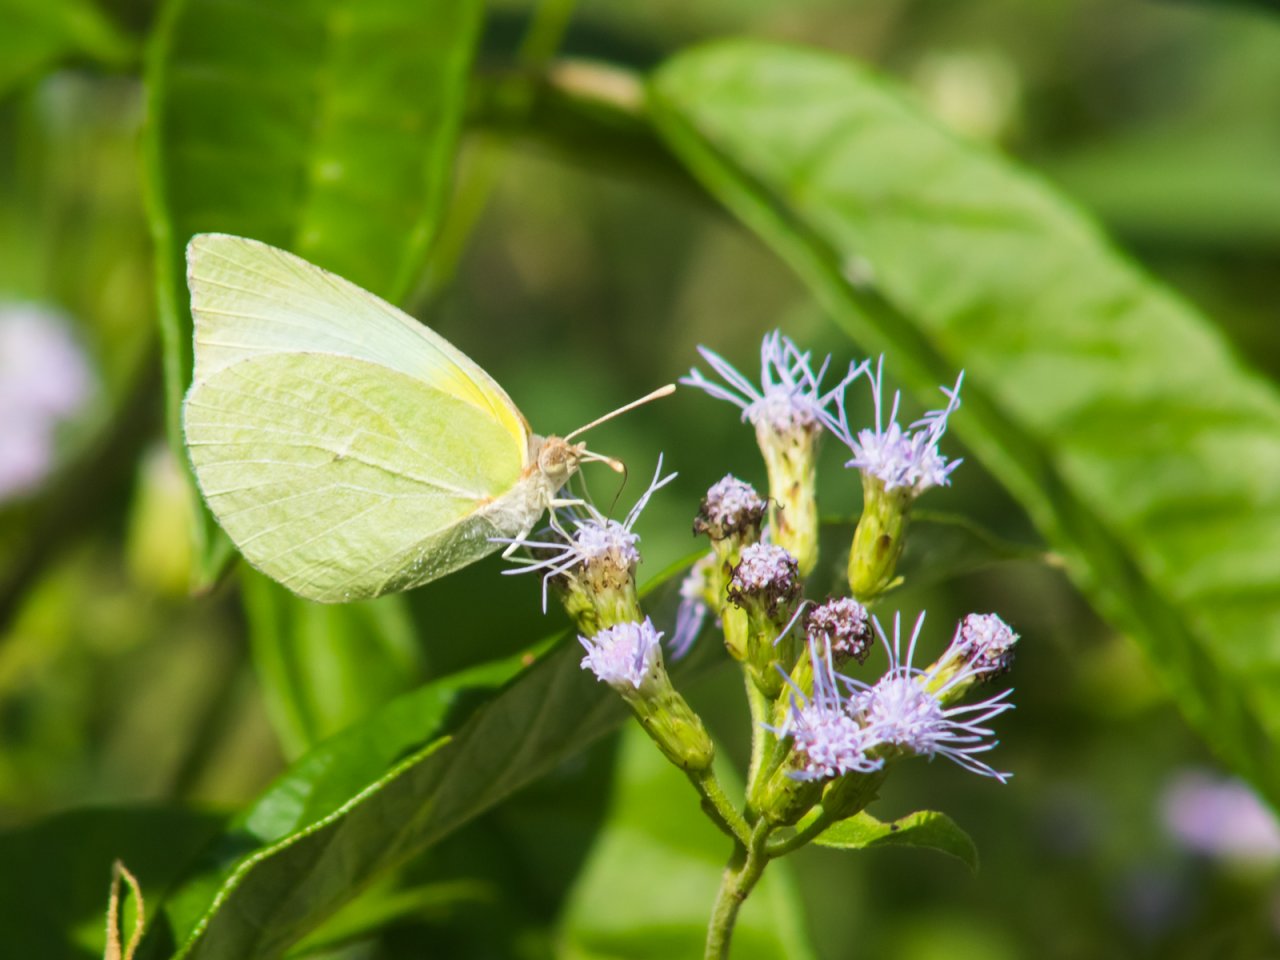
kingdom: Animalia
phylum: Arthropoda
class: Insecta
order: Lepidoptera
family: Pieridae
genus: Kricogonia
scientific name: Kricogonia lyside
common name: Lyside Sulphur
